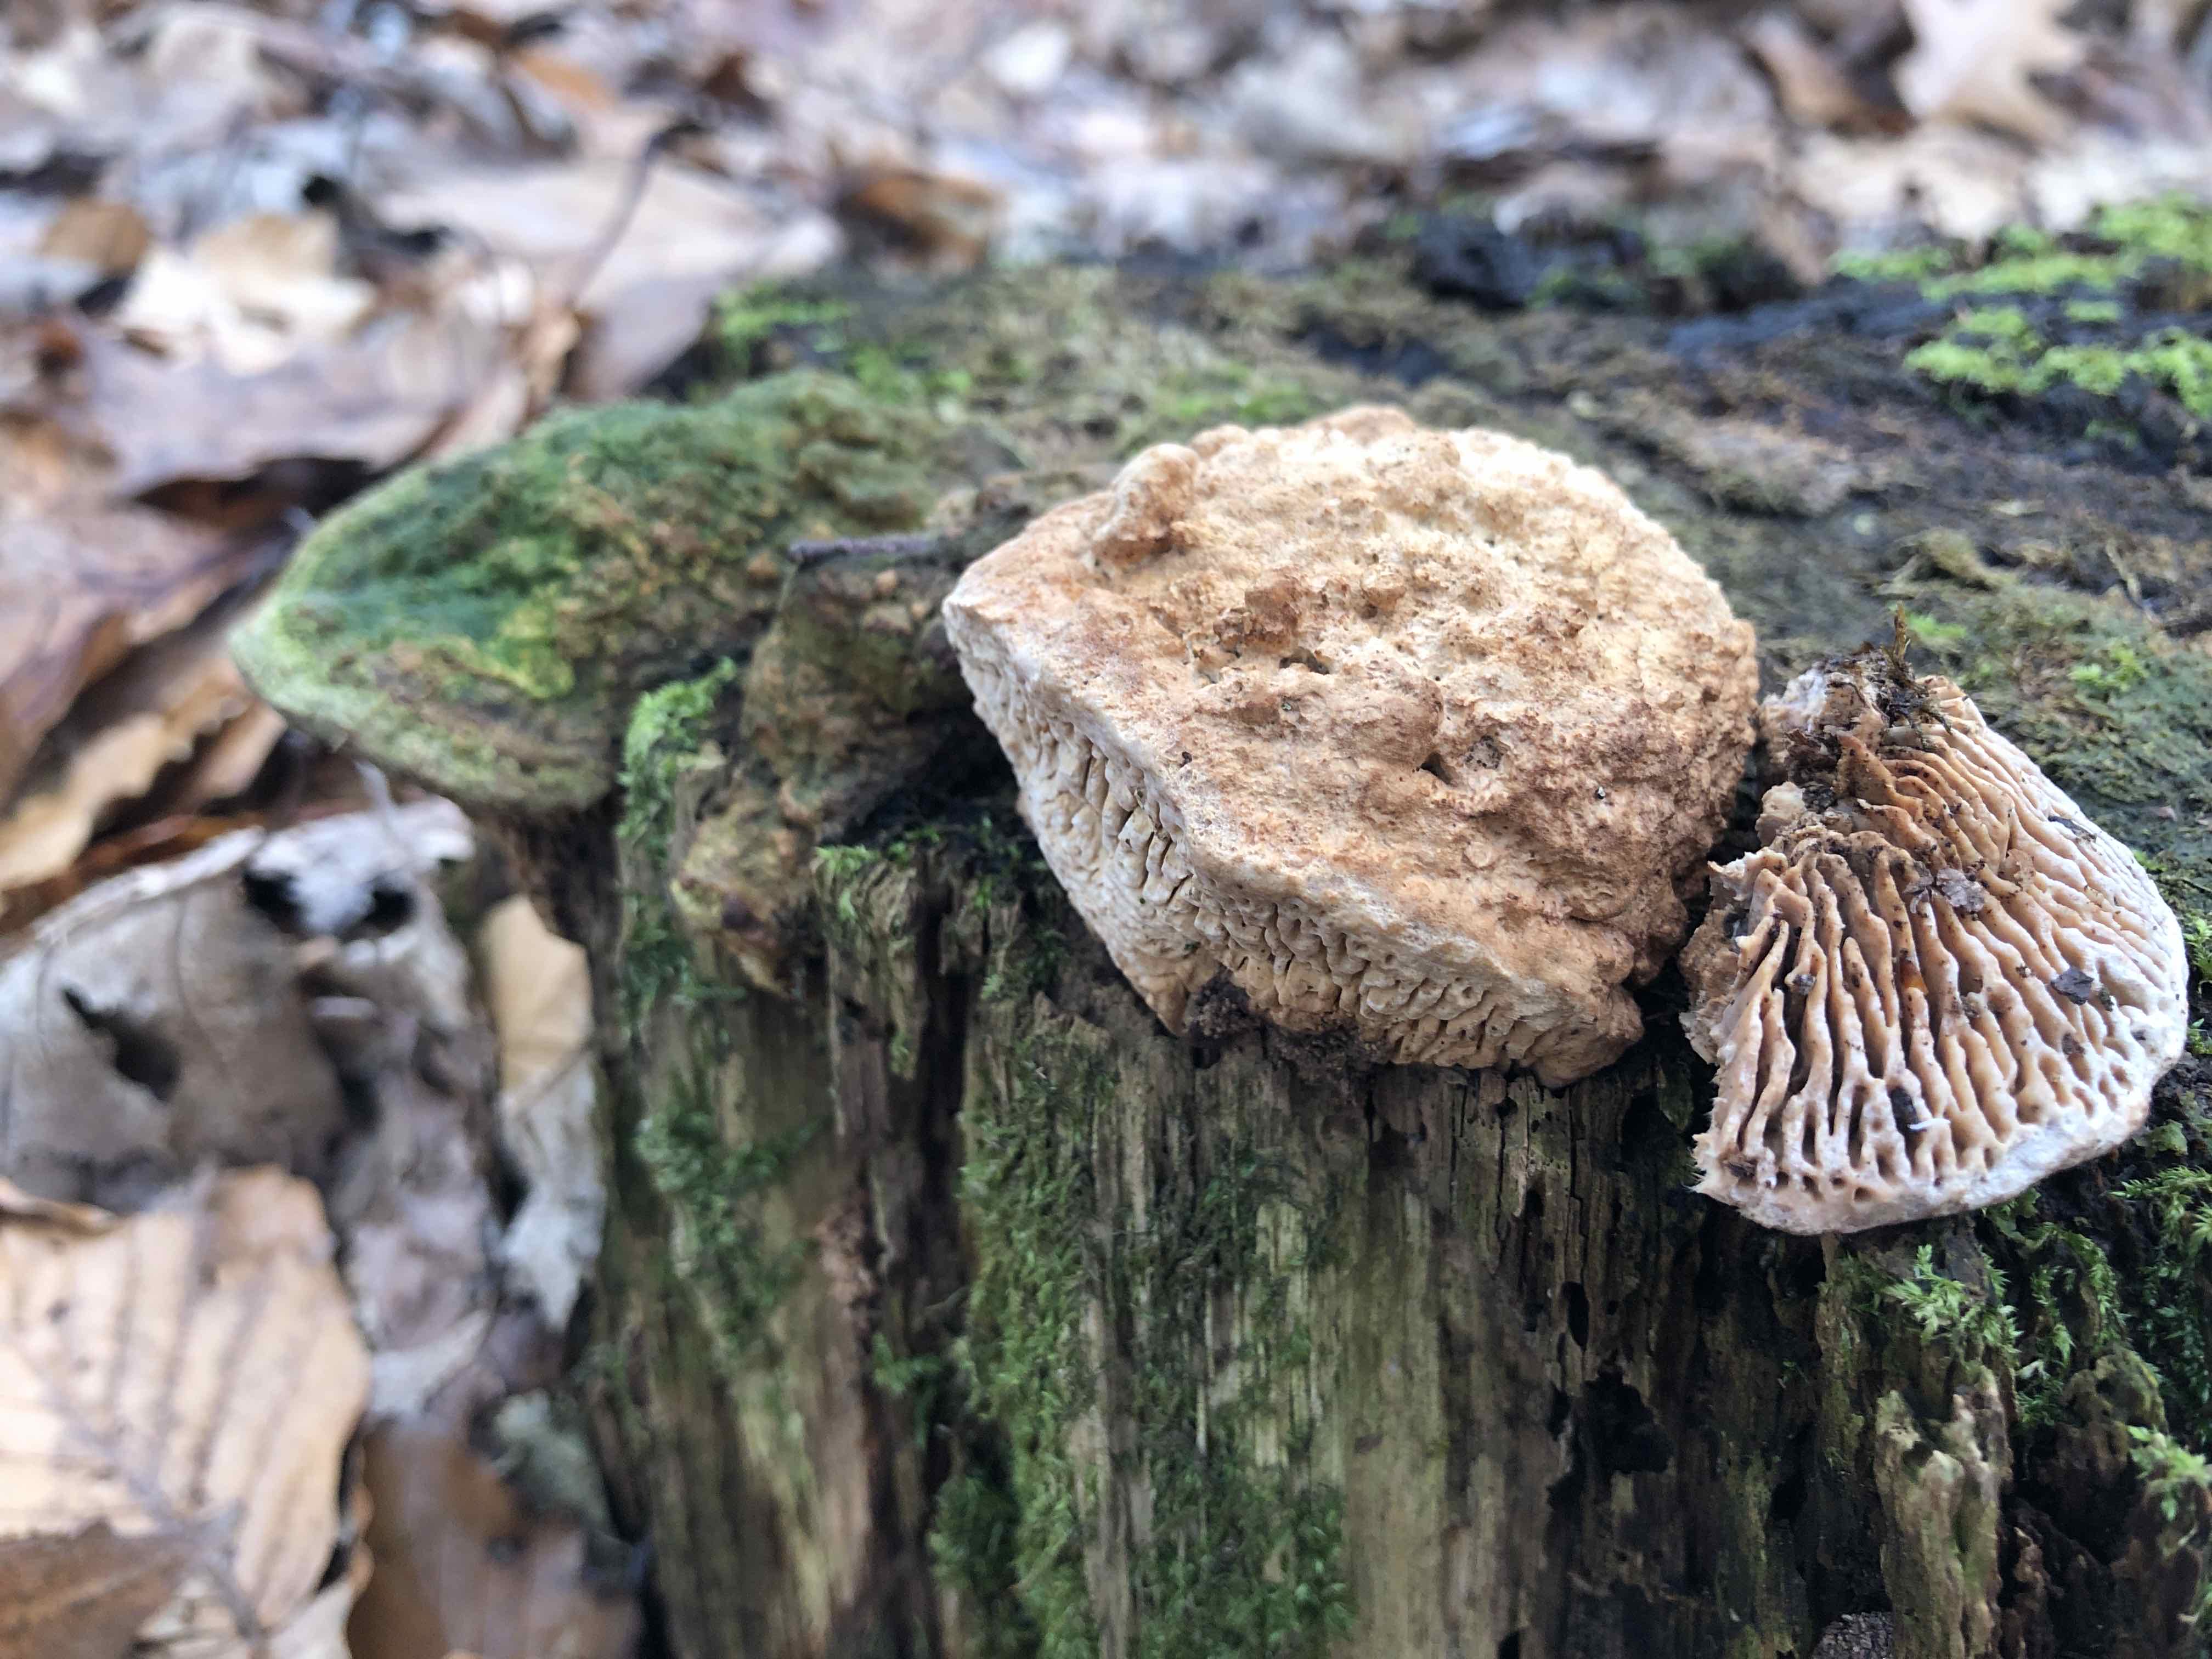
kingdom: Fungi
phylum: Basidiomycota
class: Agaricomycetes
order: Polyporales
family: Fomitopsidaceae
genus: Daedalea
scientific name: Daedalea quercina
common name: ege-labyrintsvamp
